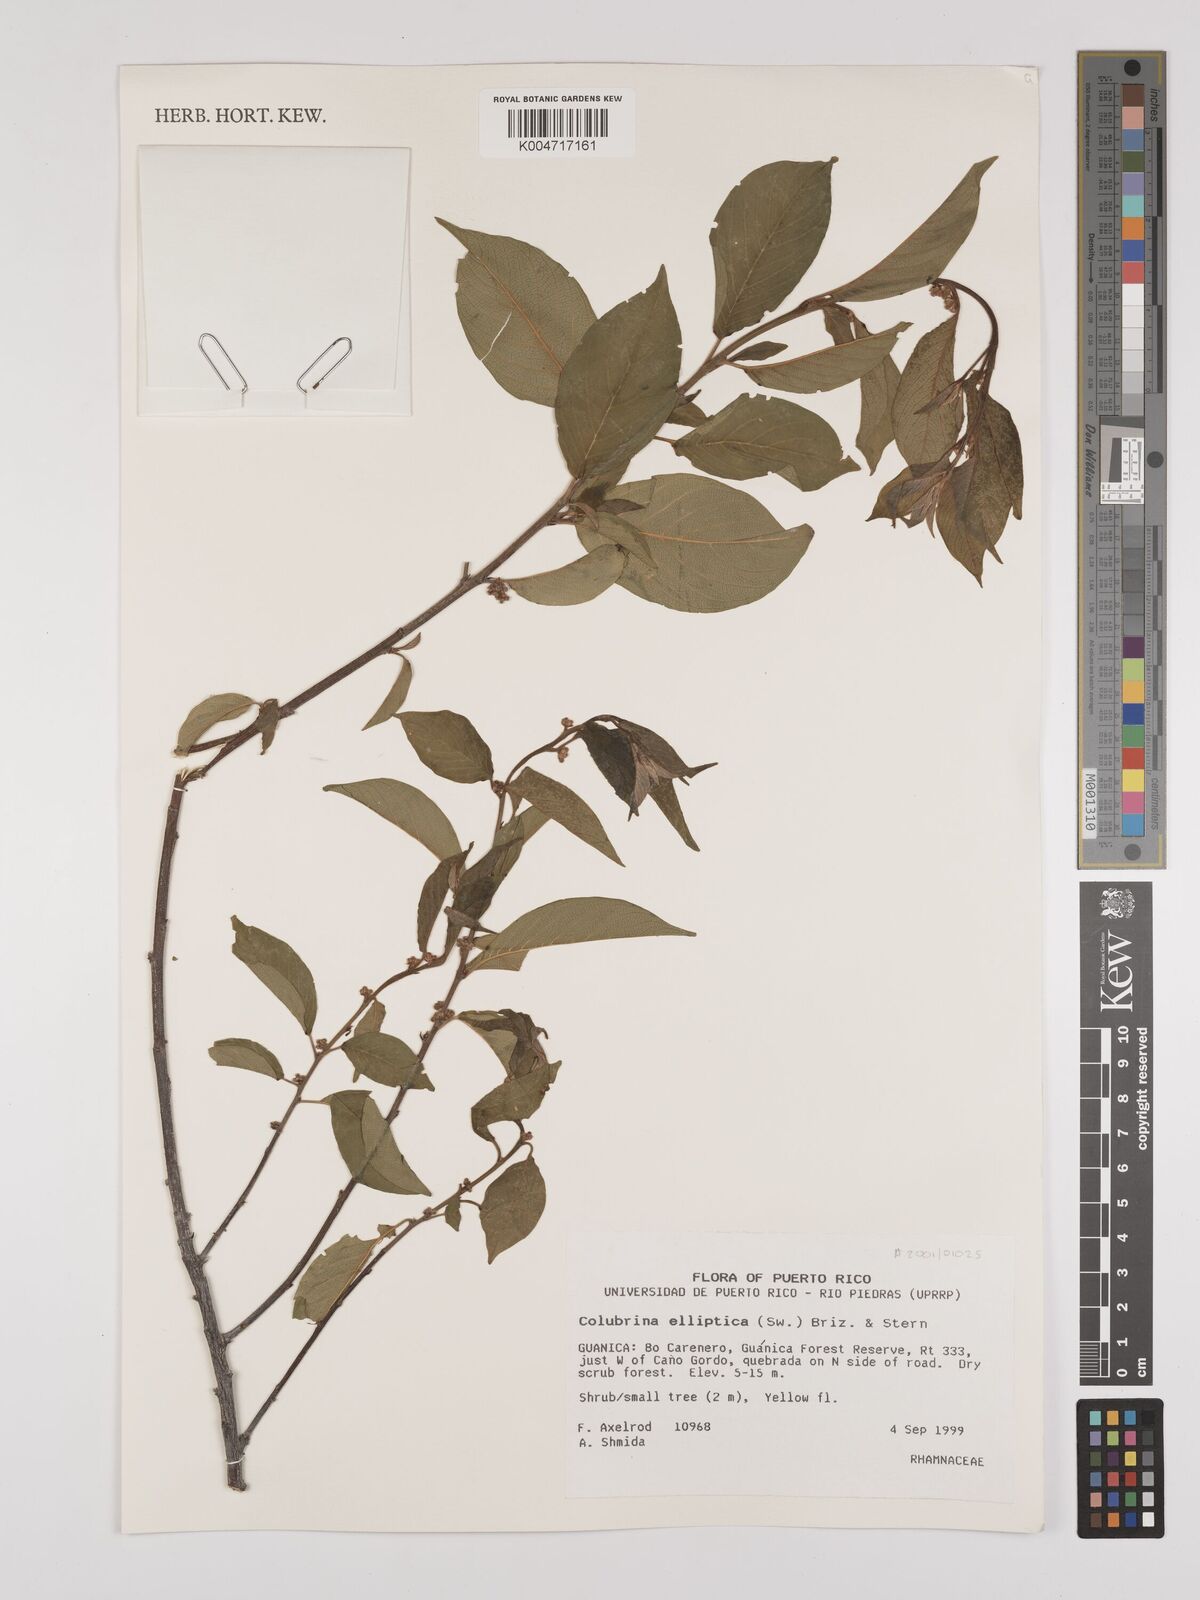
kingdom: Plantae
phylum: Tracheophyta
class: Magnoliopsida
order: Rosales
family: Rhamnaceae
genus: Colubrina
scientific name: Colubrina elliptica
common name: Soldierwood
